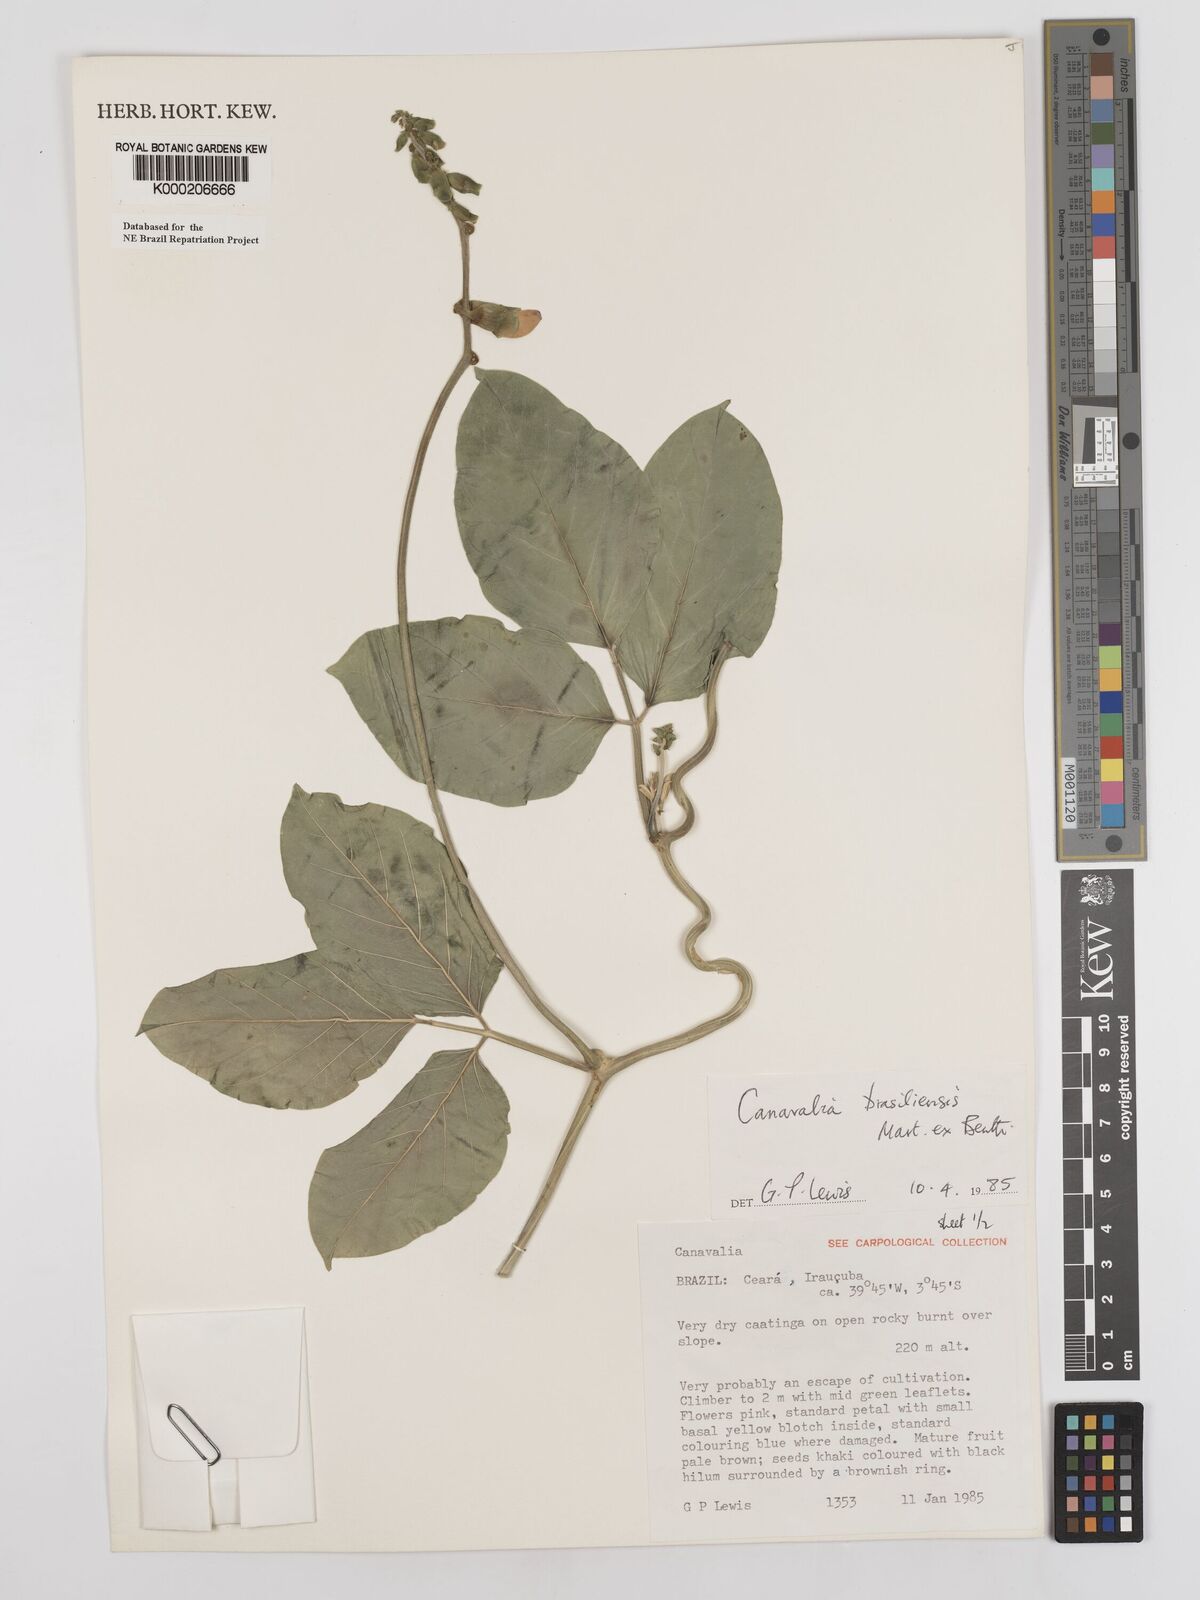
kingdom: Plantae
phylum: Tracheophyta
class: Magnoliopsida
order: Fabales
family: Fabaceae
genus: Canavalia
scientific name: Canavalia brasiliensis
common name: Barbicou-bean
